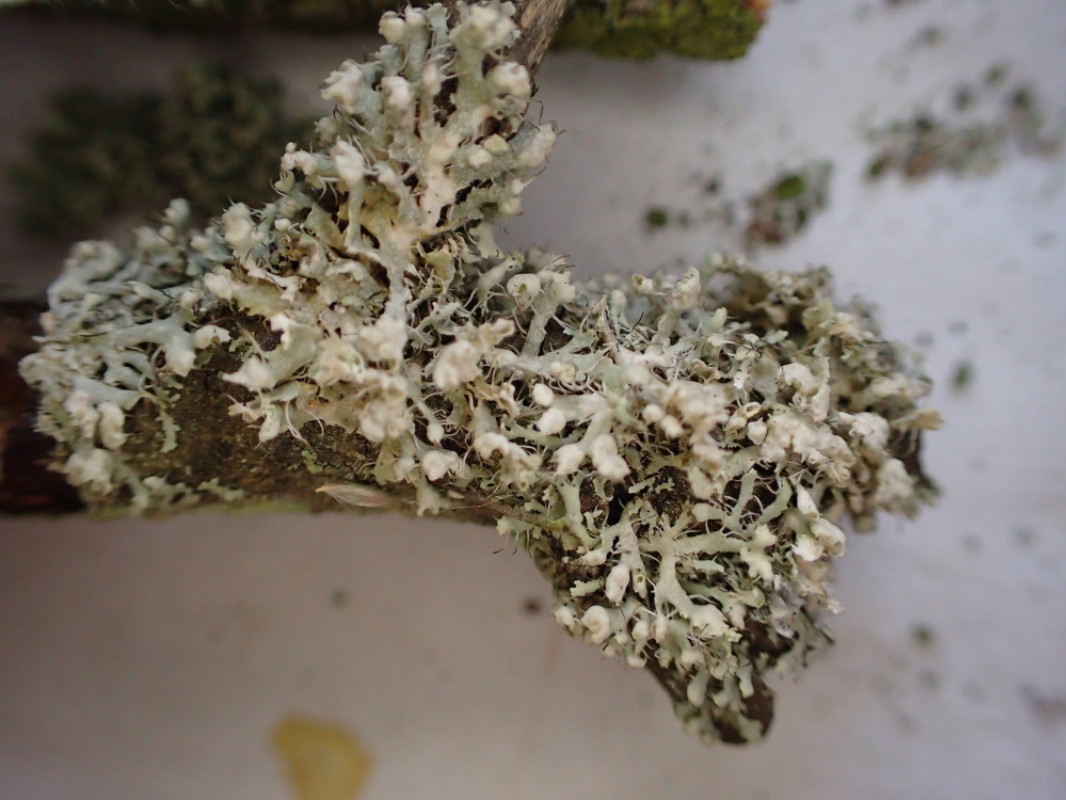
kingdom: Fungi
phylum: Ascomycota
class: Lecanoromycetes
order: Caliciales
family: Physciaceae
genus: Physcia
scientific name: Physcia adscendens
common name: hætte-rosetlav
